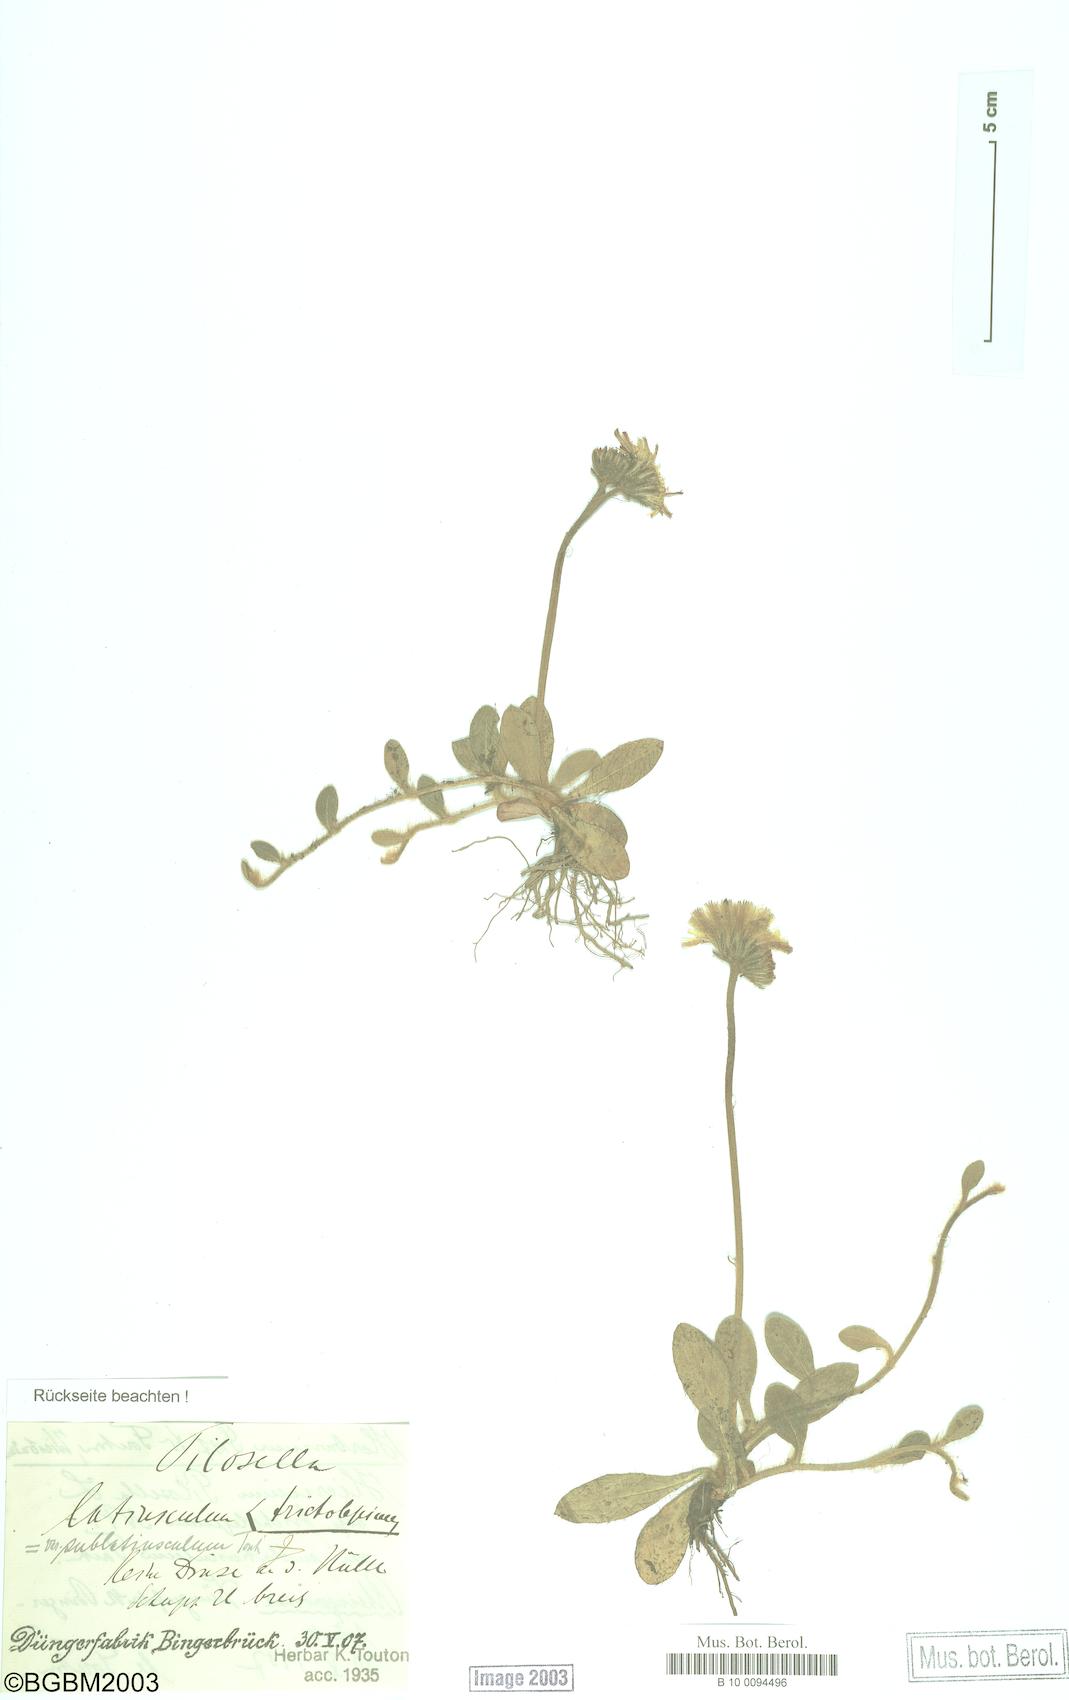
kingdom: Plantae
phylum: Tracheophyta
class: Magnoliopsida
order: Asterales
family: Asteraceae
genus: Pilosella
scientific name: Pilosella officinarum
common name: Mouse-ear hawkweed
